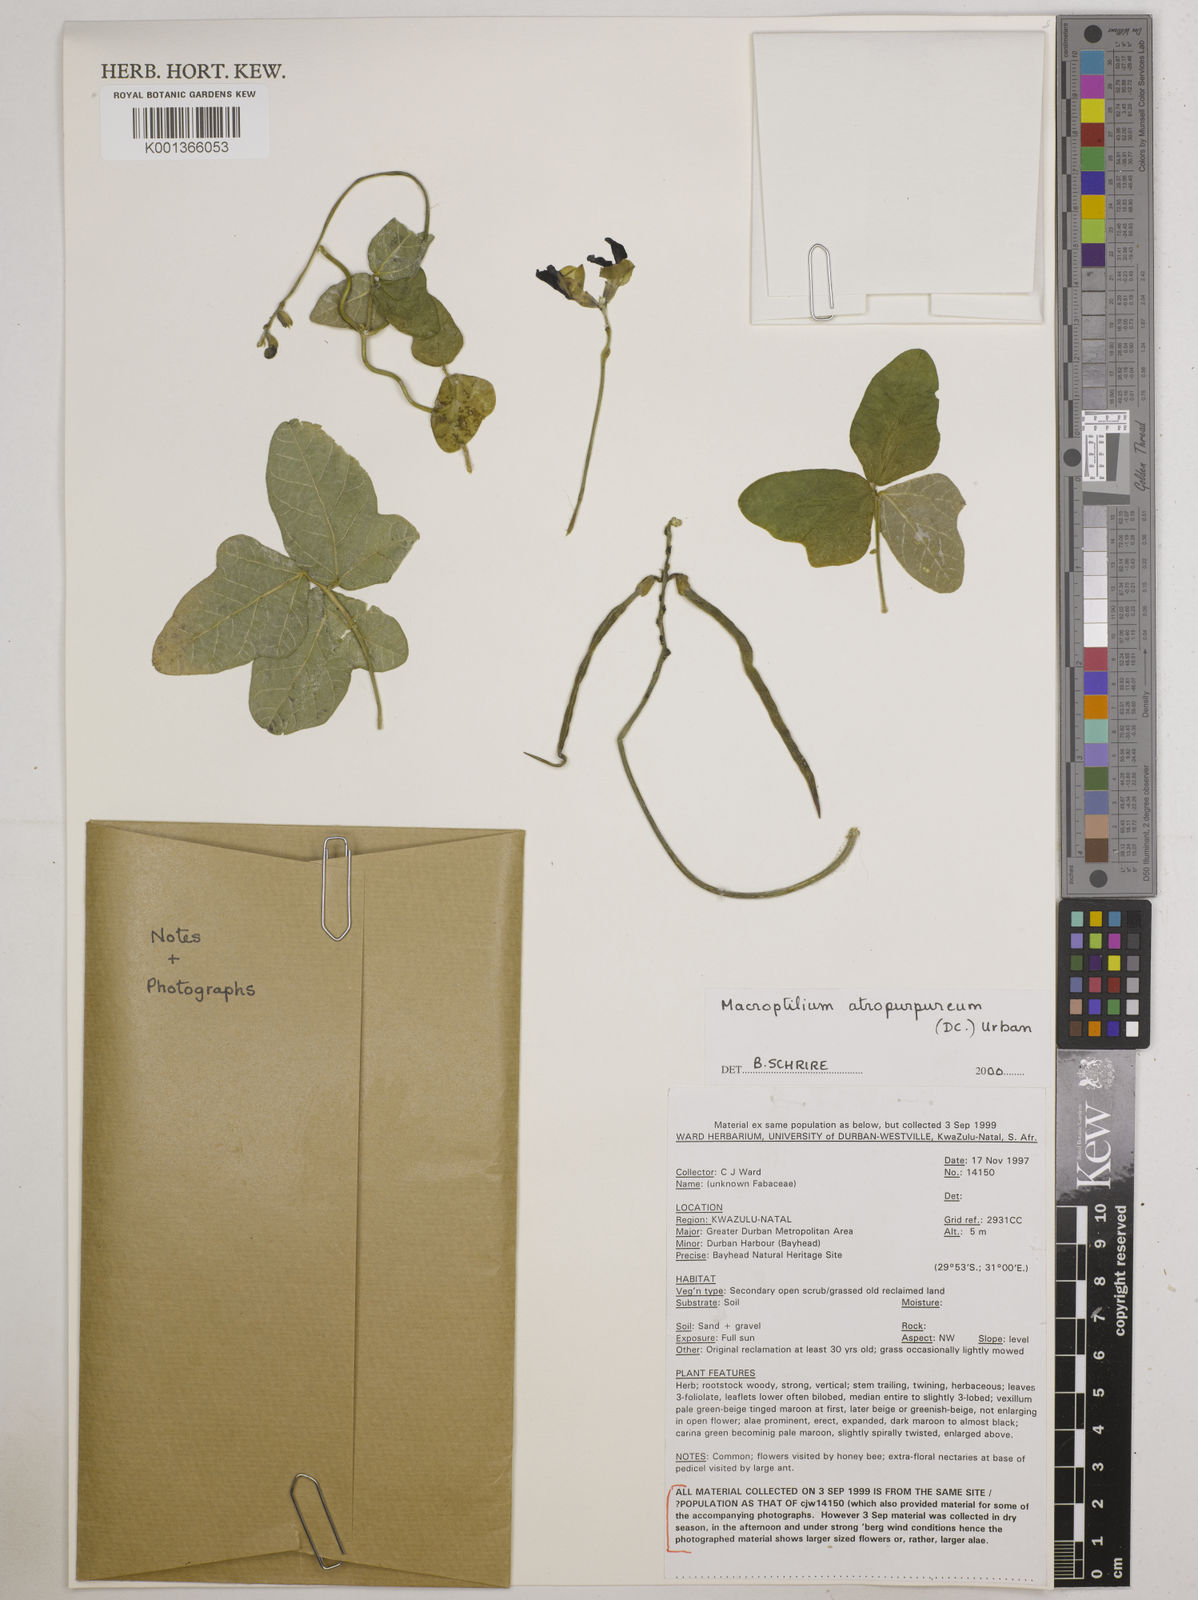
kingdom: Plantae
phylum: Tracheophyta
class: Magnoliopsida
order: Fabales
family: Fabaceae
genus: Macroptilium
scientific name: Macroptilium atropurpureum
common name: Purple bushbean
